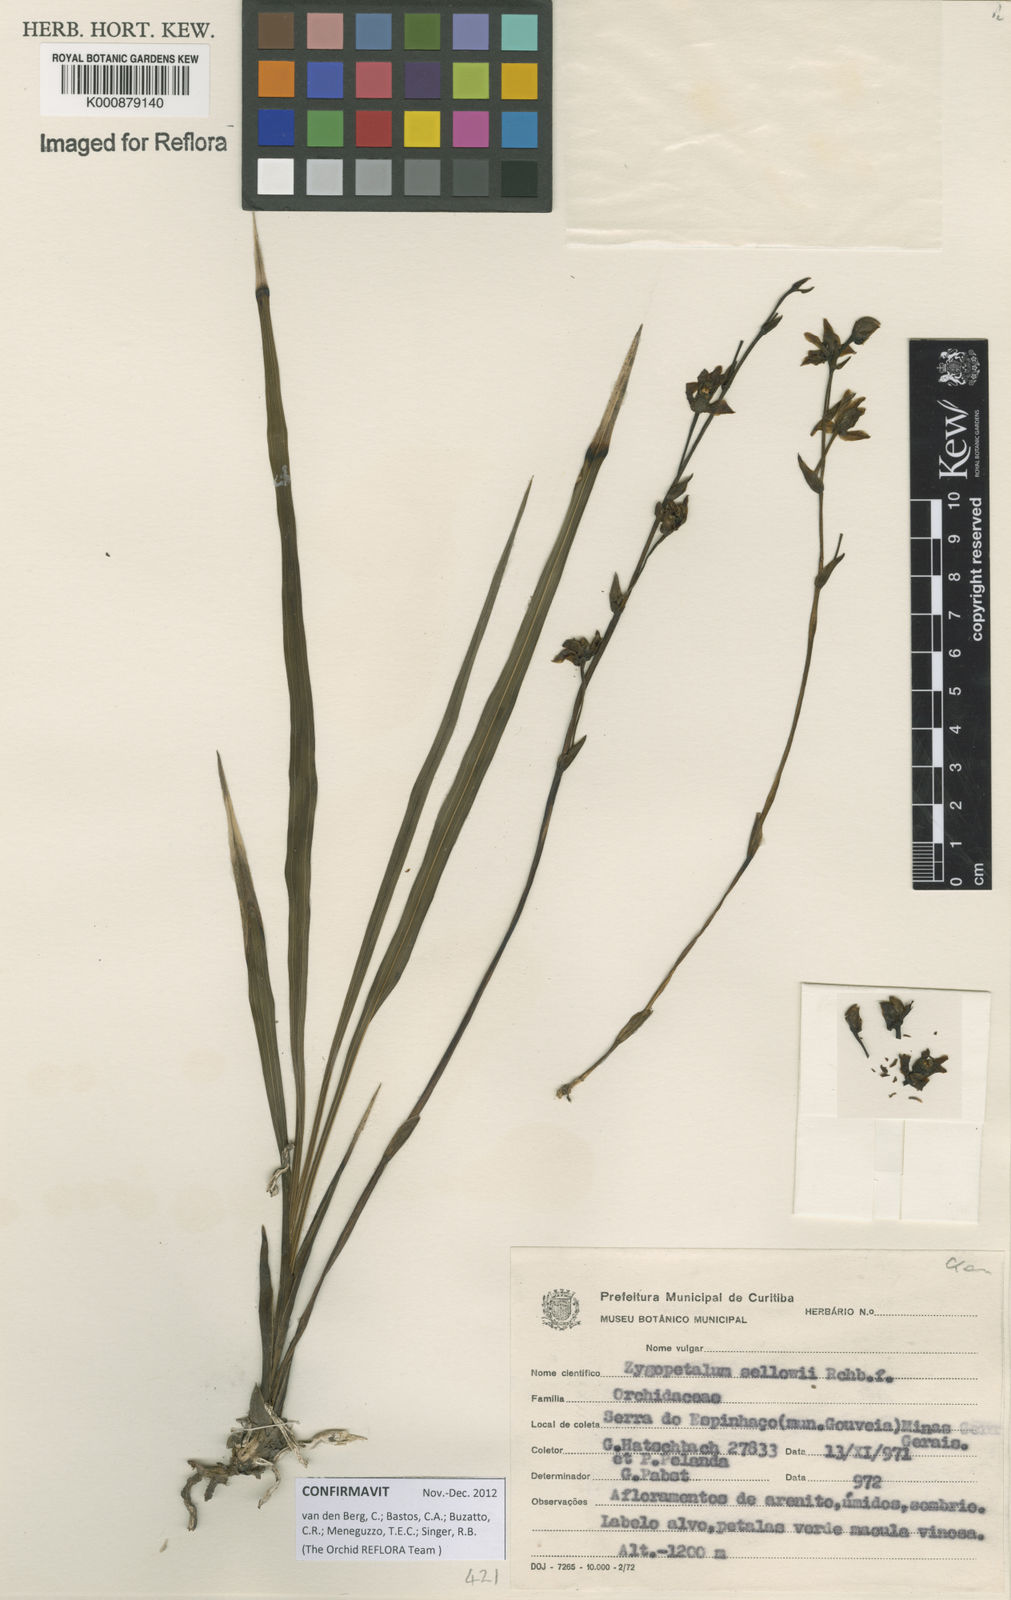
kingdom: Plantae
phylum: Tracheophyta
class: Liliopsida
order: Asparagales
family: Orchidaceae
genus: Zygopetalum
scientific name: Zygopetalum sellowii
